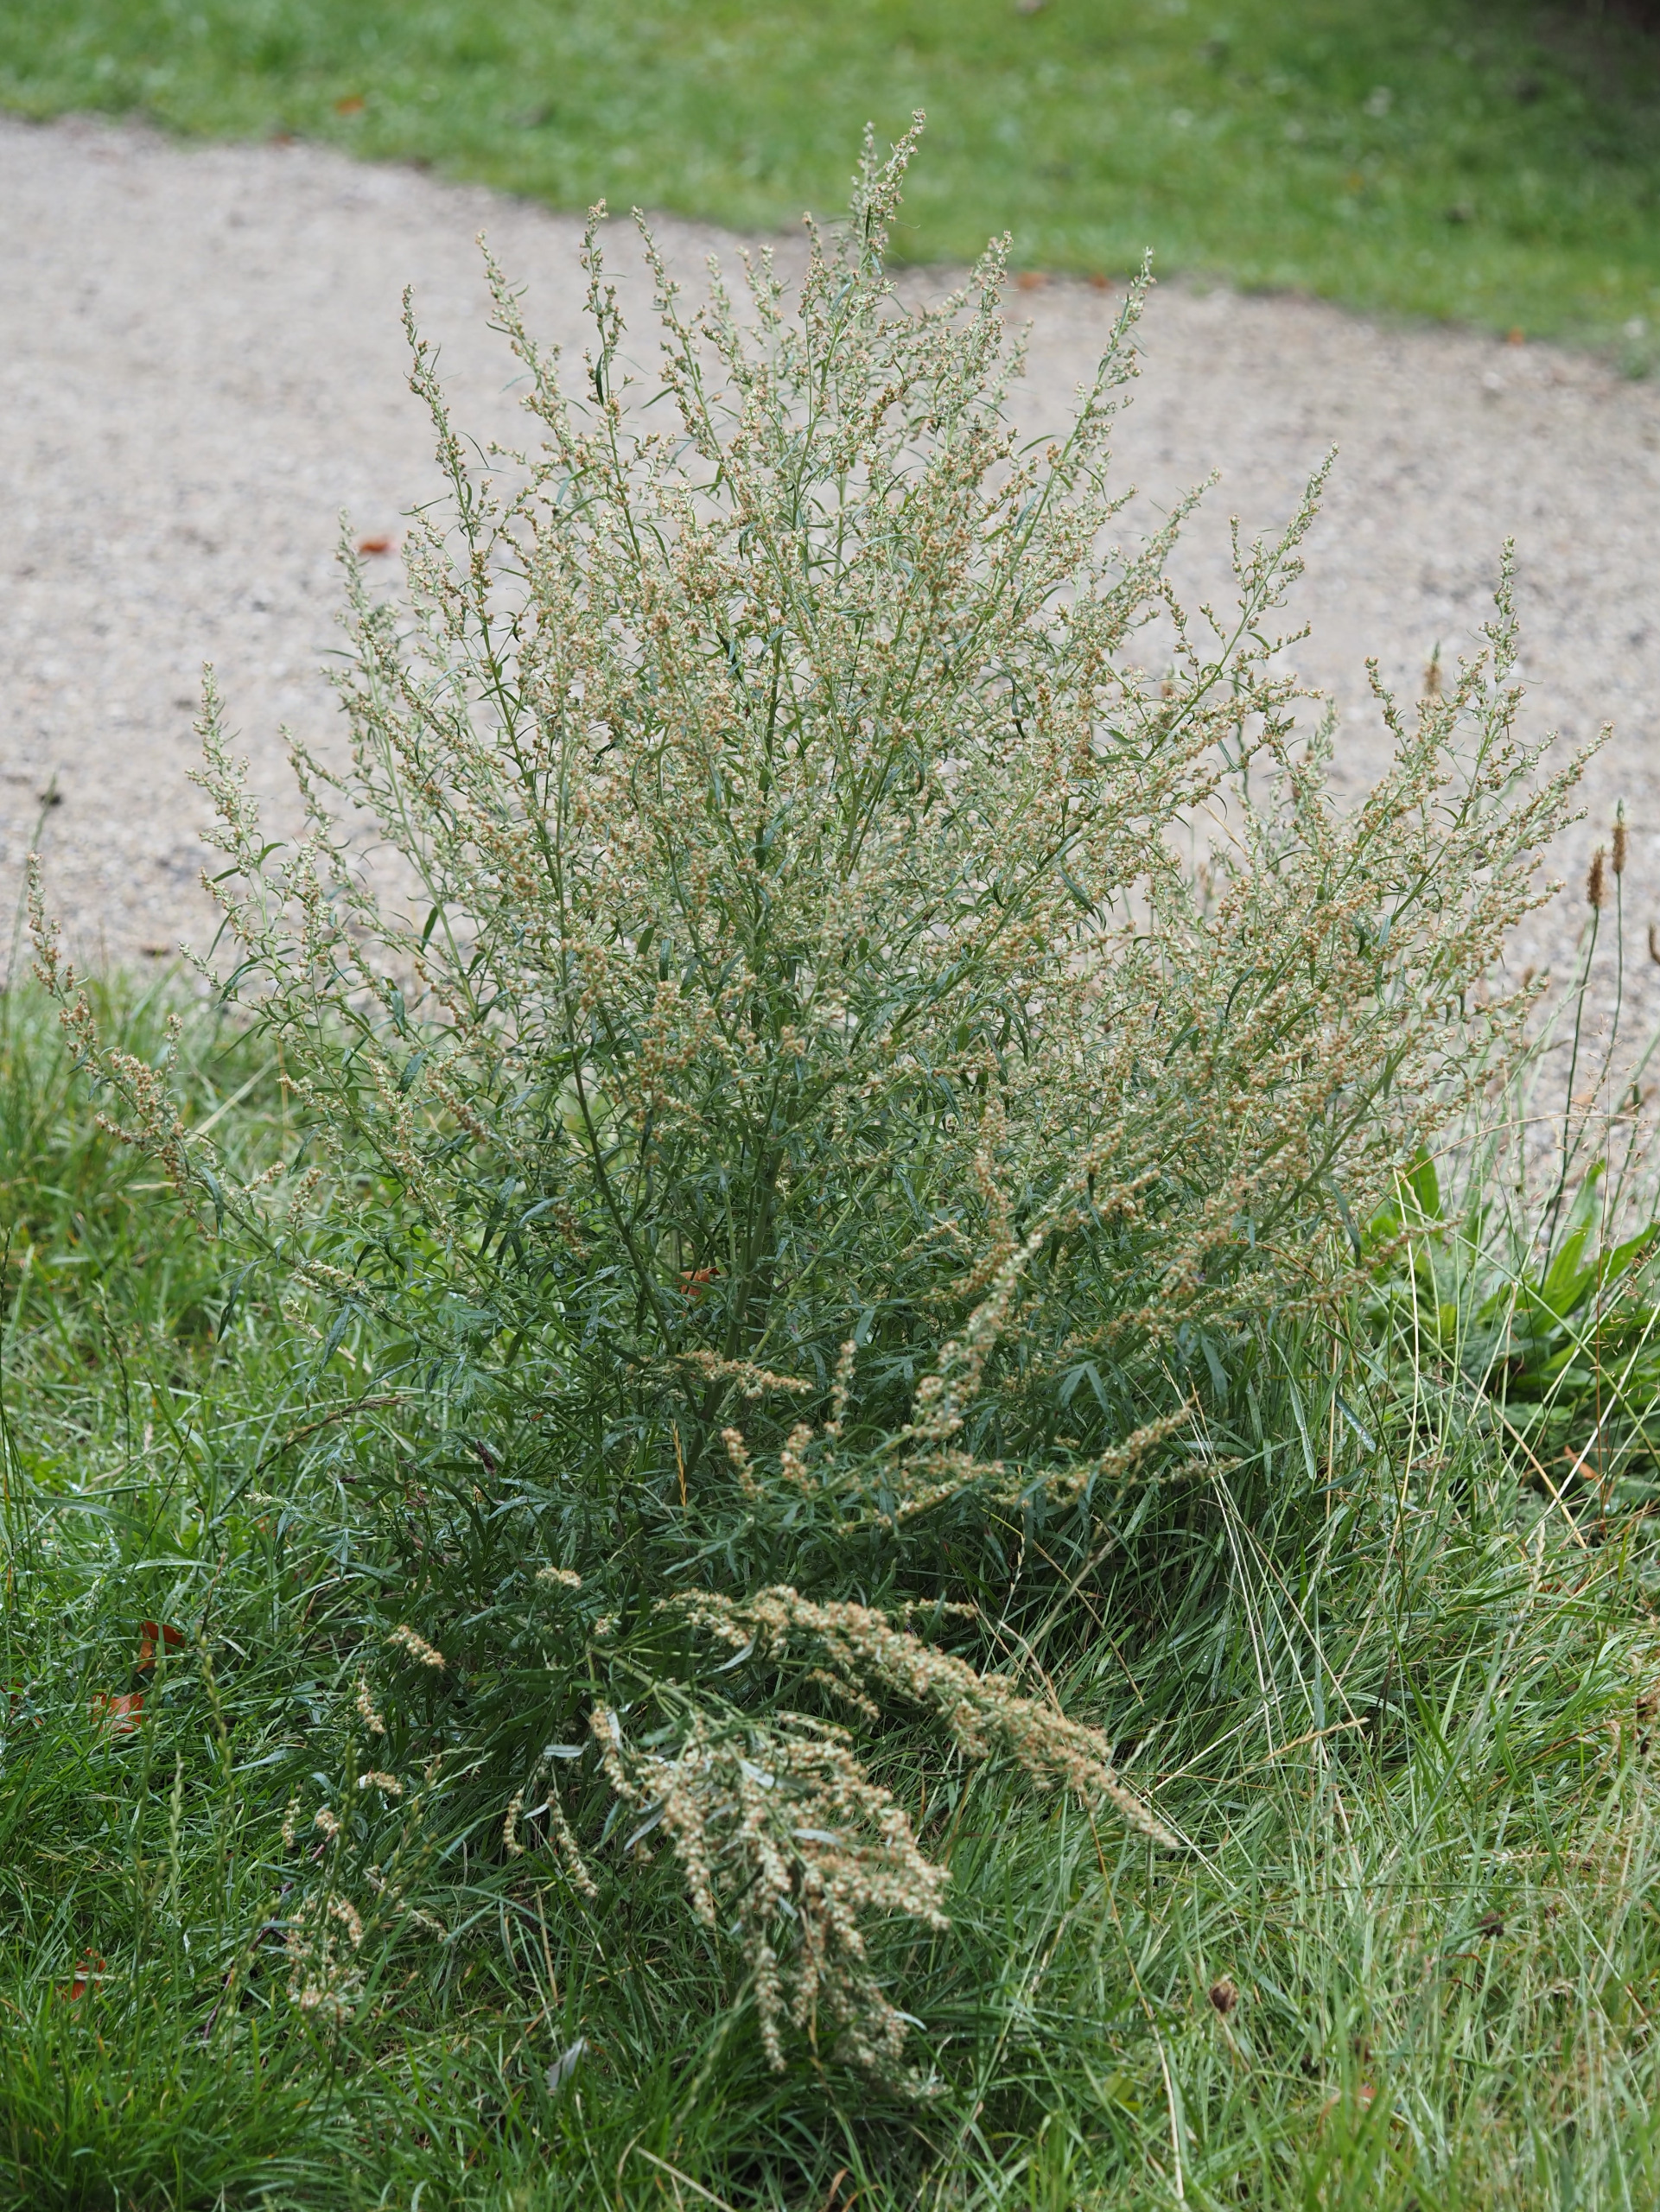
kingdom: Plantae
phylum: Tracheophyta
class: Magnoliopsida
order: Asterales
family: Asteraceae
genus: Artemisia
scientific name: Artemisia vulgaris
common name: Grå-bynke
